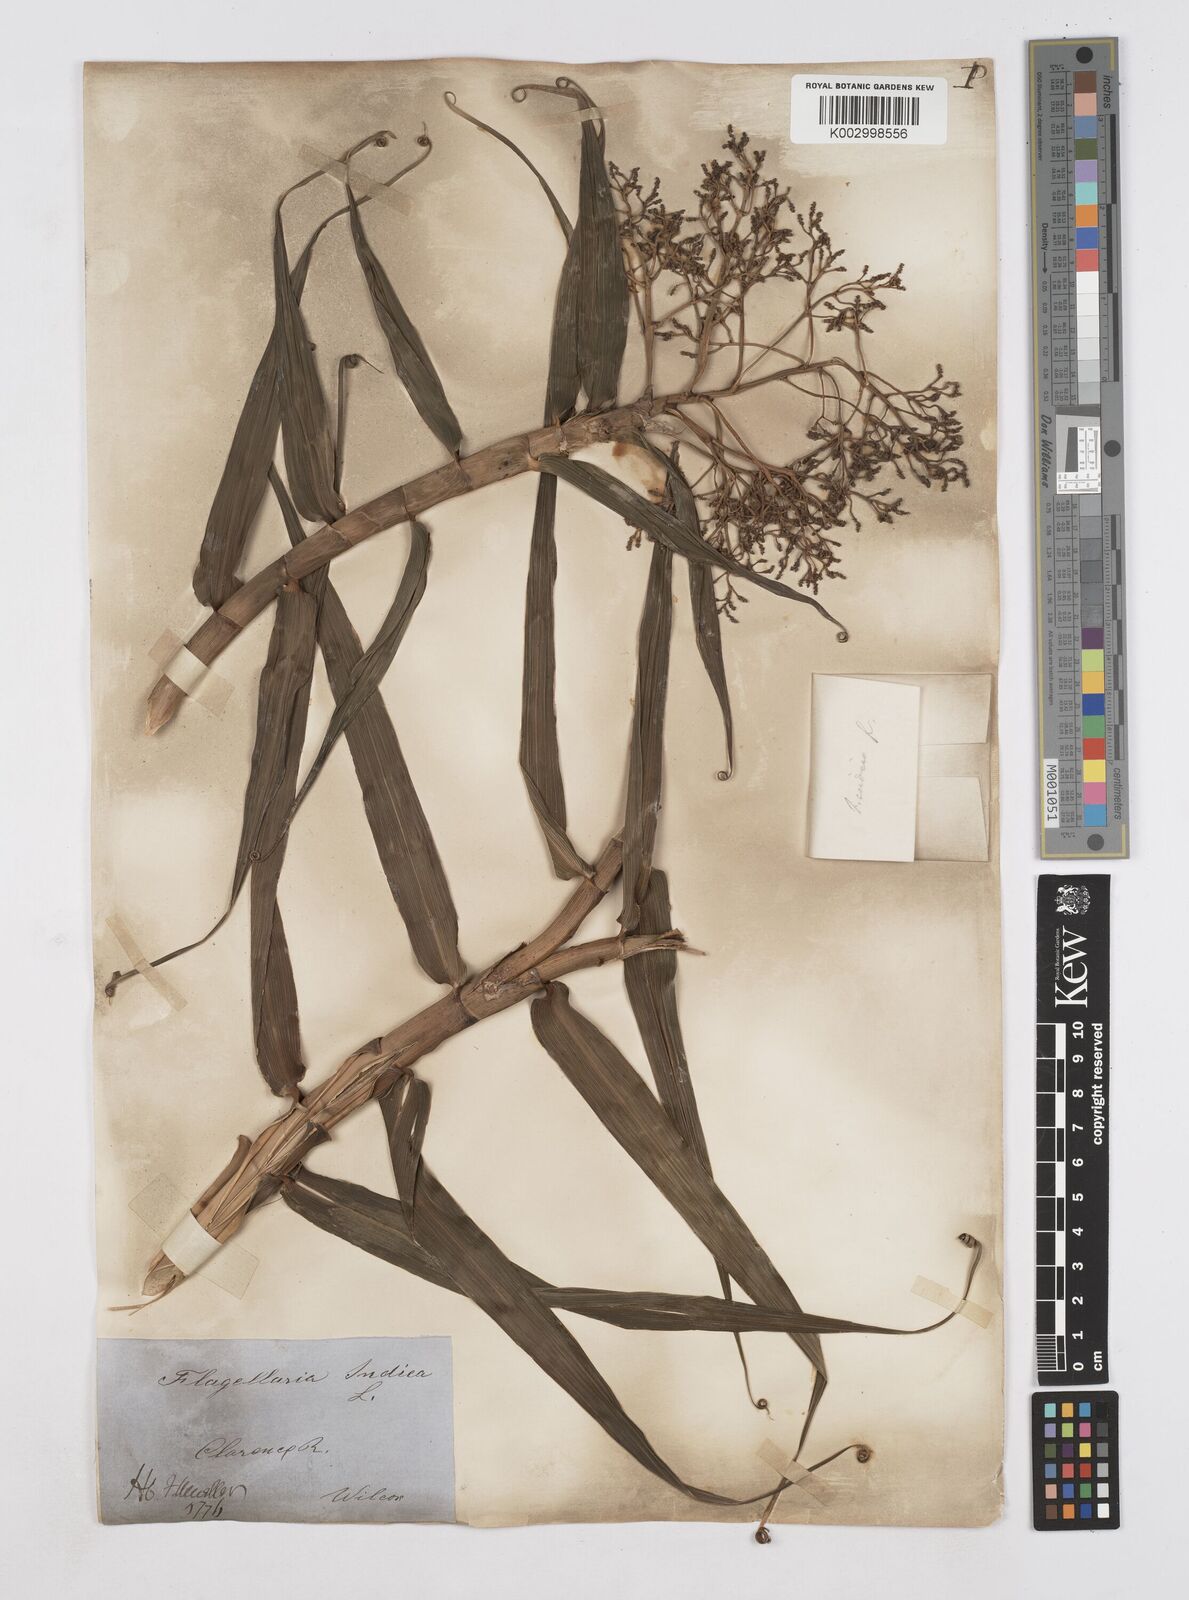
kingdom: Plantae
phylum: Tracheophyta
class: Liliopsida
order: Poales
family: Flagellariaceae
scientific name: Flagellariaceae
